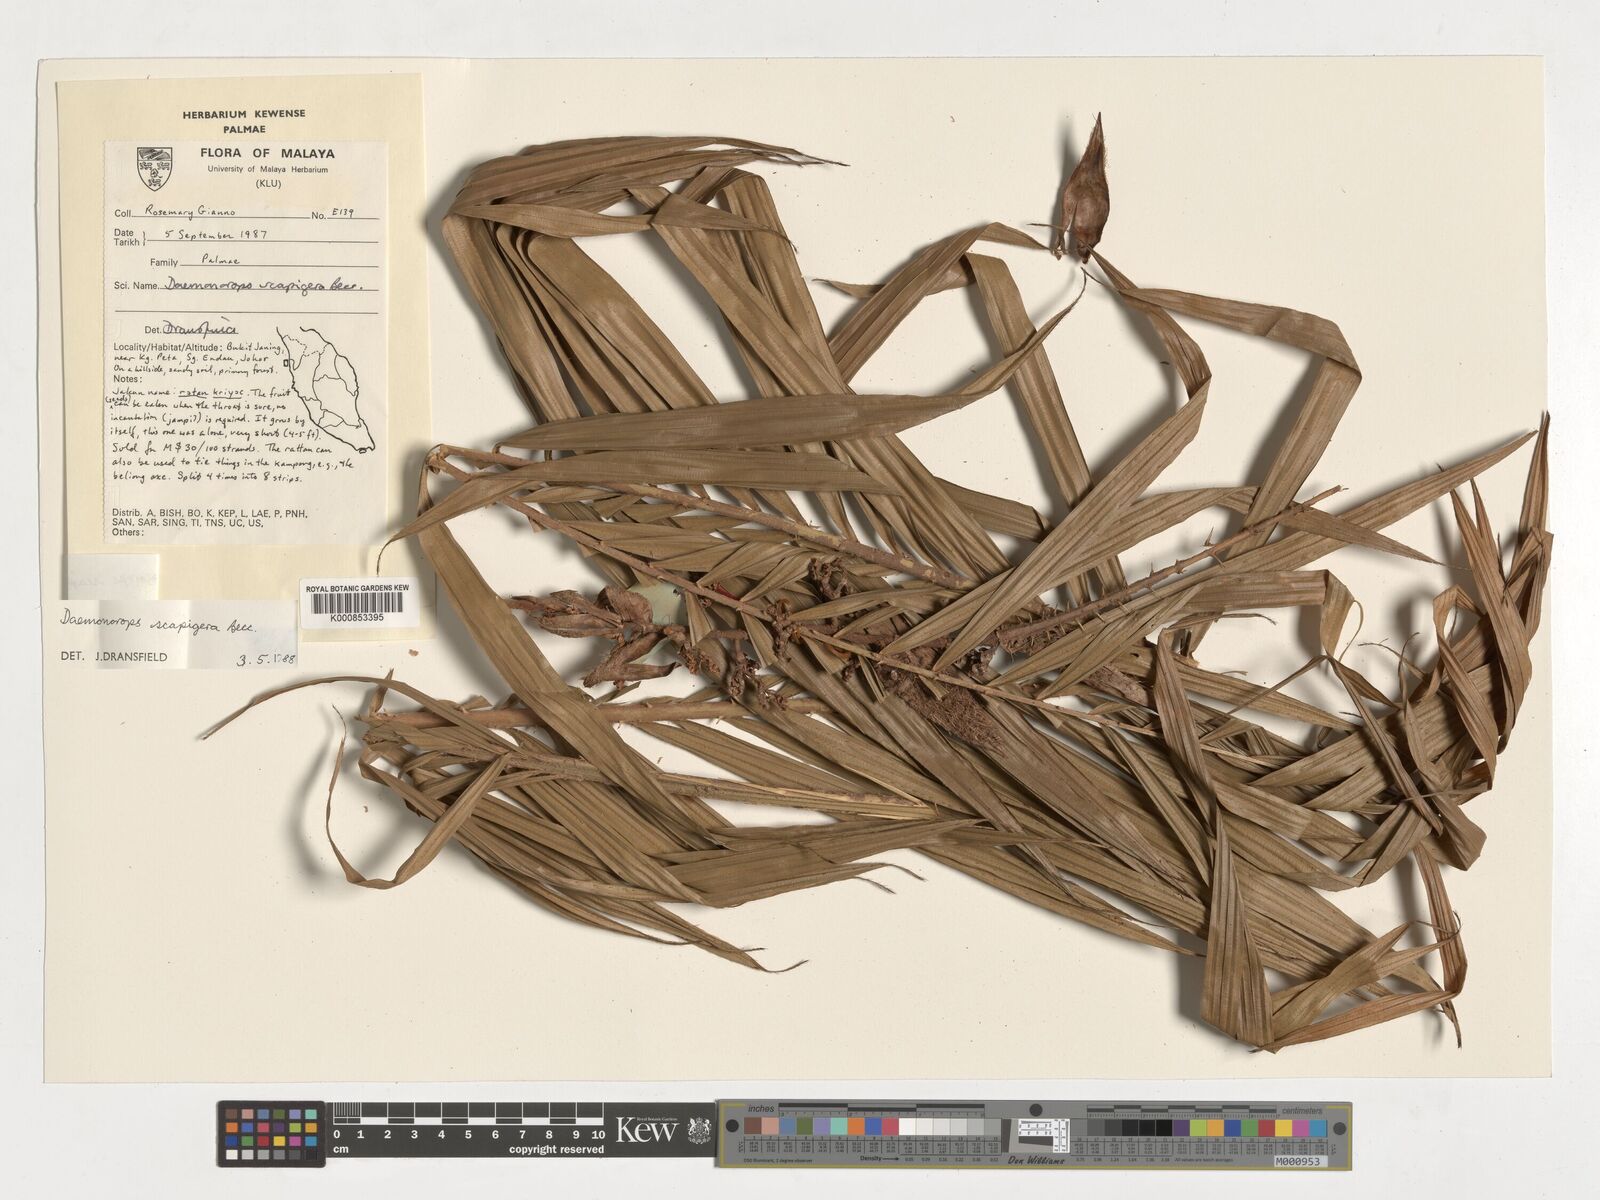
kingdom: Plantae
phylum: Tracheophyta
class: Liliopsida
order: Arecales
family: Arecaceae
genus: Calamus
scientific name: Calamus scapigerus
